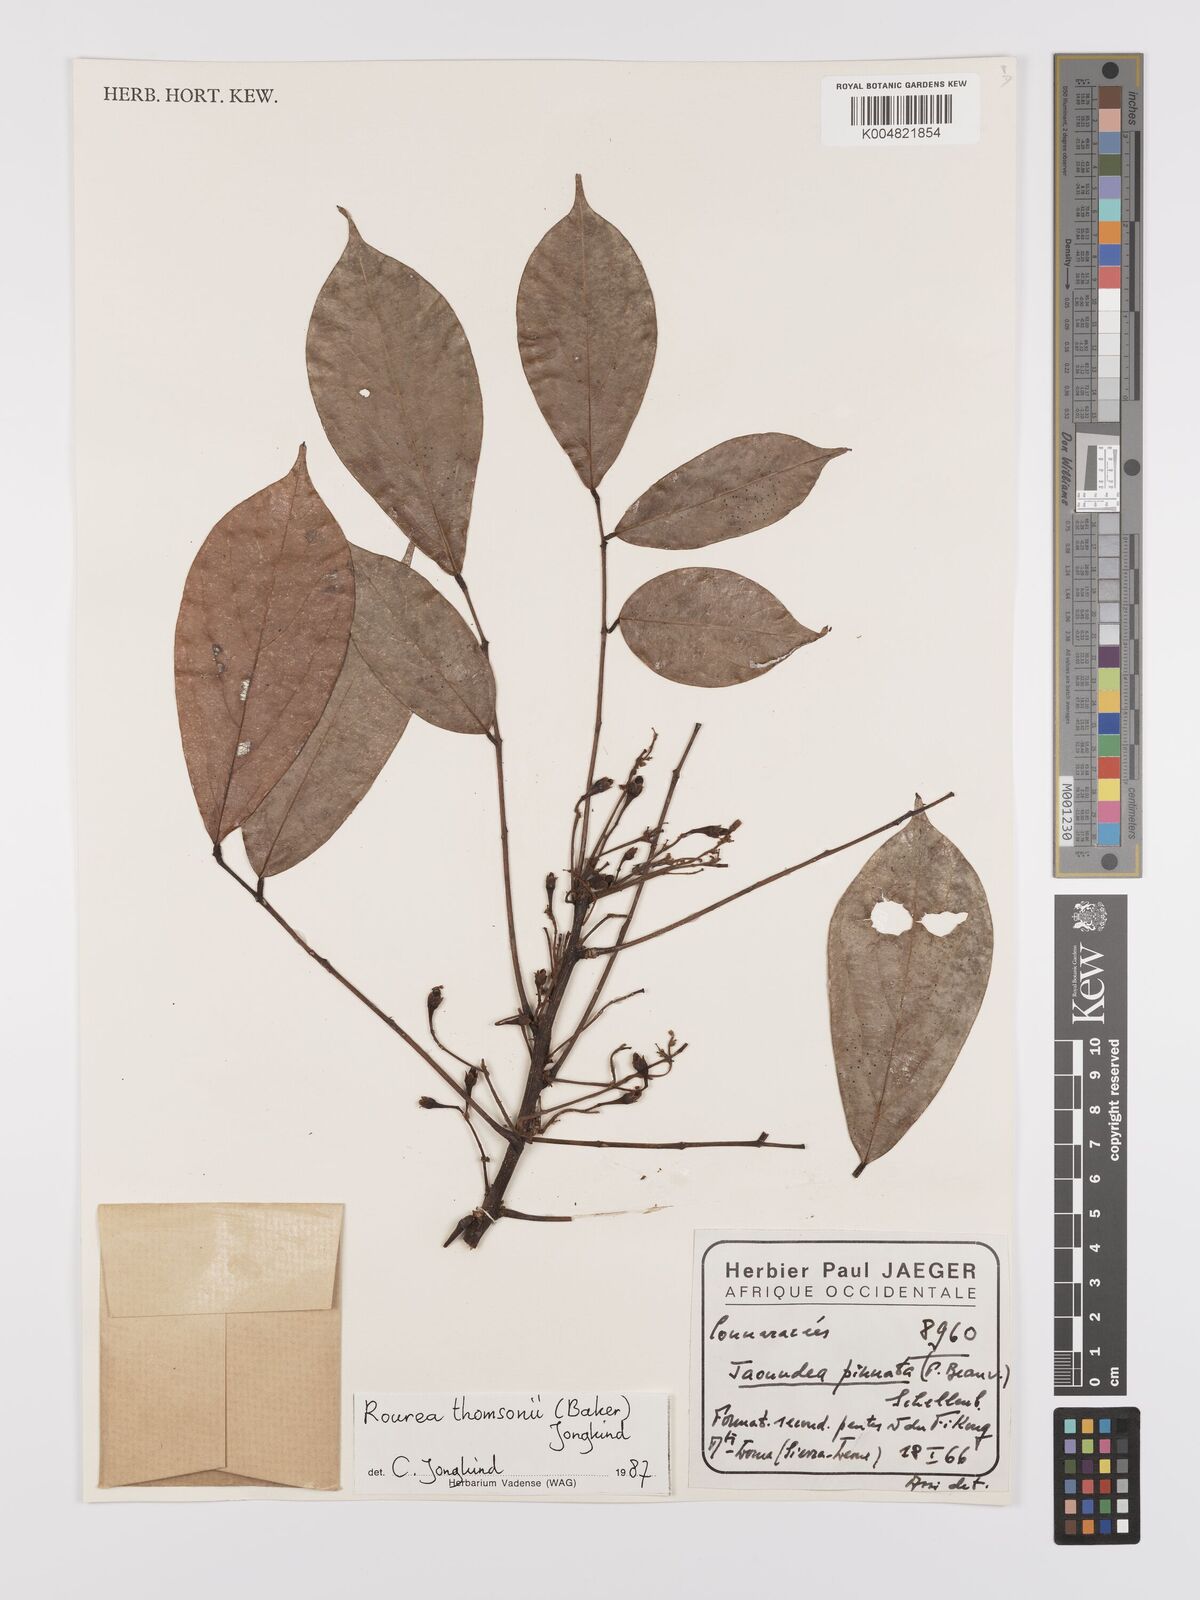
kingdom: Plantae
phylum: Tracheophyta
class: Magnoliopsida
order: Oxalidales
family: Connaraceae
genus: Rourea
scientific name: Rourea pinnata
